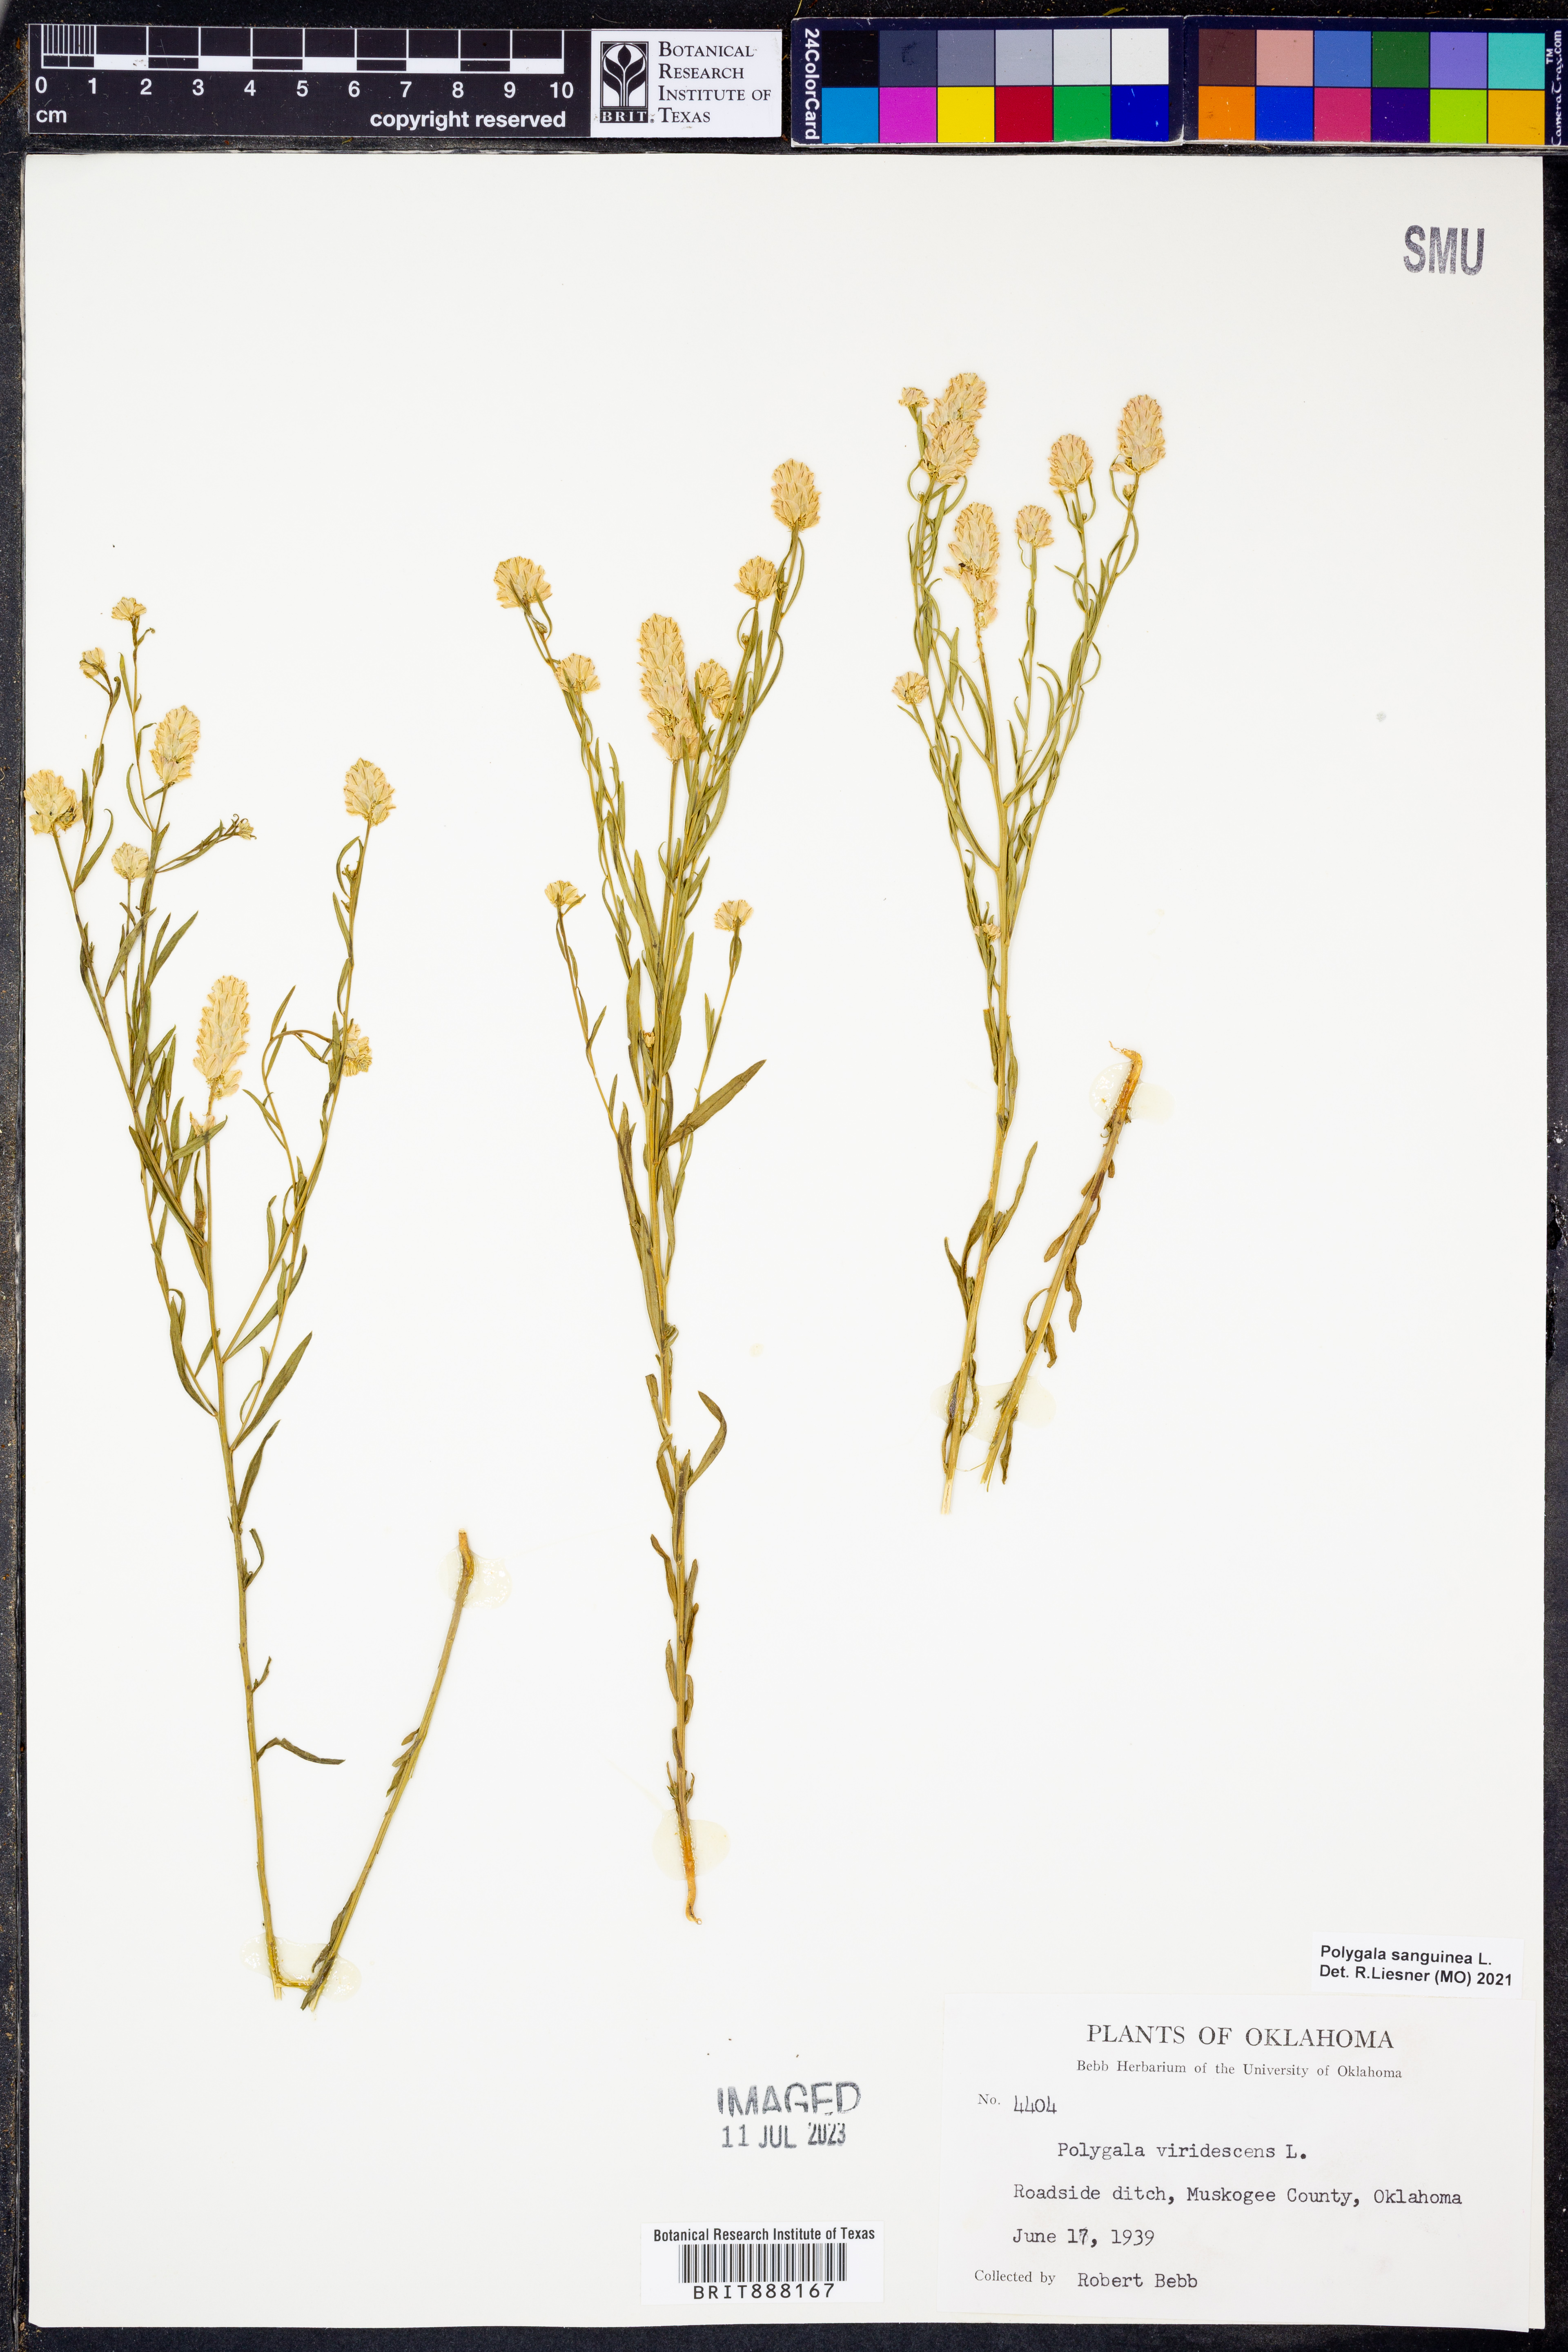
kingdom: Plantae
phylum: Tracheophyta
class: Magnoliopsida
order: Fabales
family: Polygalaceae
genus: Polygala
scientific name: Polygala sanguinea
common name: Blood milkwort
